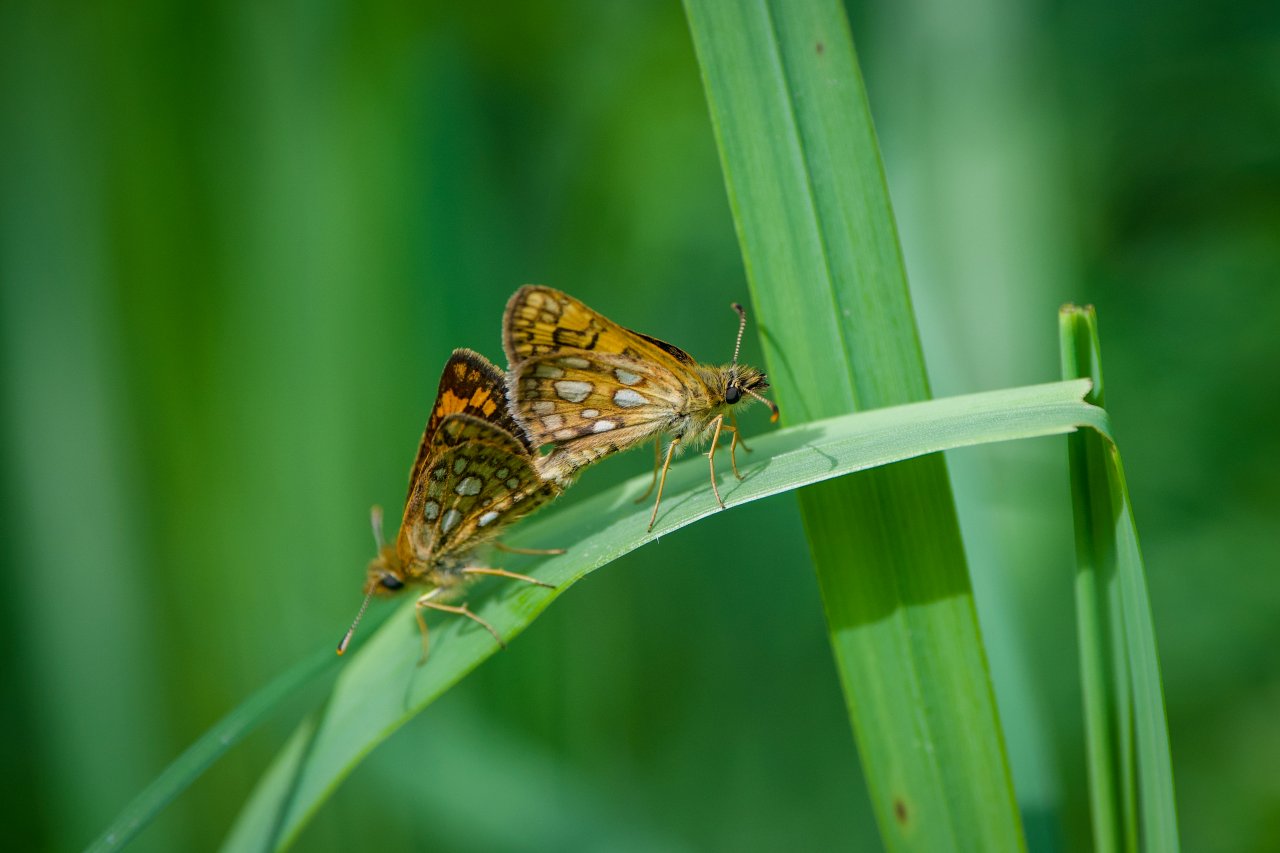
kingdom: Animalia
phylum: Arthropoda
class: Insecta
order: Lepidoptera
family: Hesperiidae
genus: Carterocephalus
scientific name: Carterocephalus palaemon
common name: Chequered Skipper
